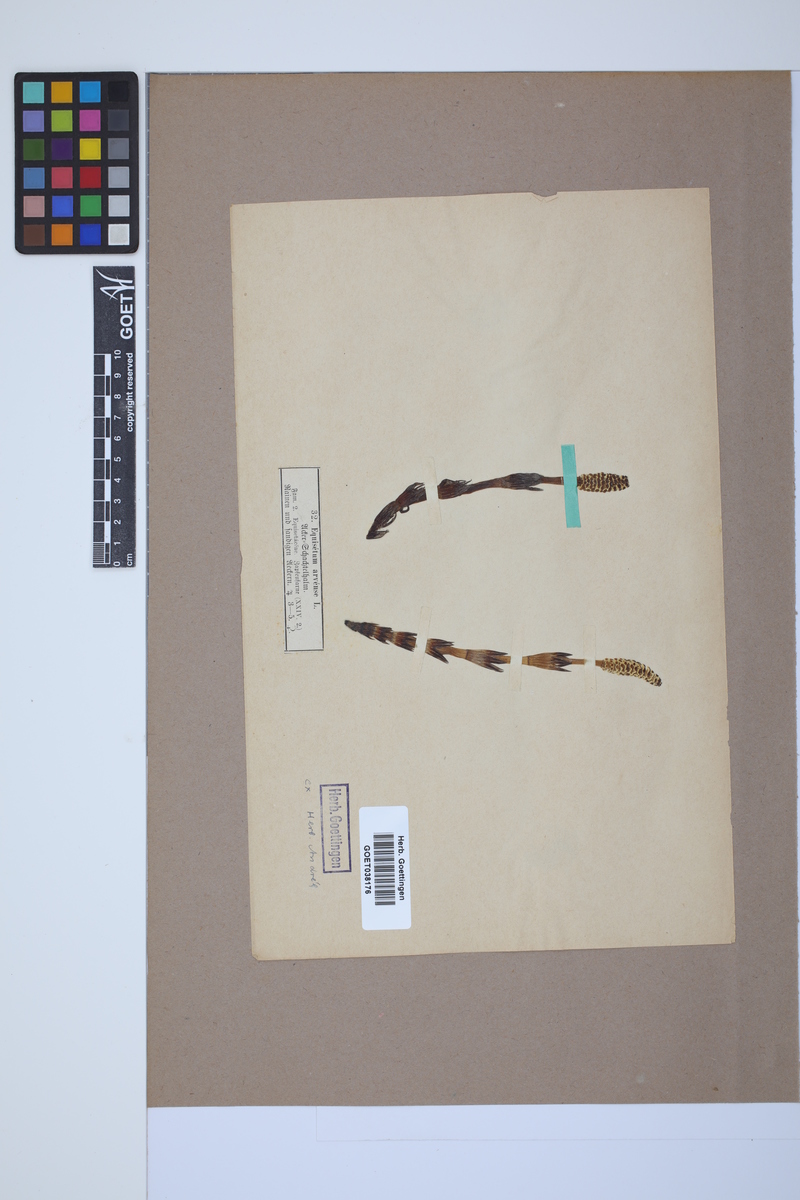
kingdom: Plantae
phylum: Tracheophyta
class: Polypodiopsida
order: Equisetales
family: Equisetaceae
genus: Equisetum
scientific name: Equisetum arvense
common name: Field horsetail
